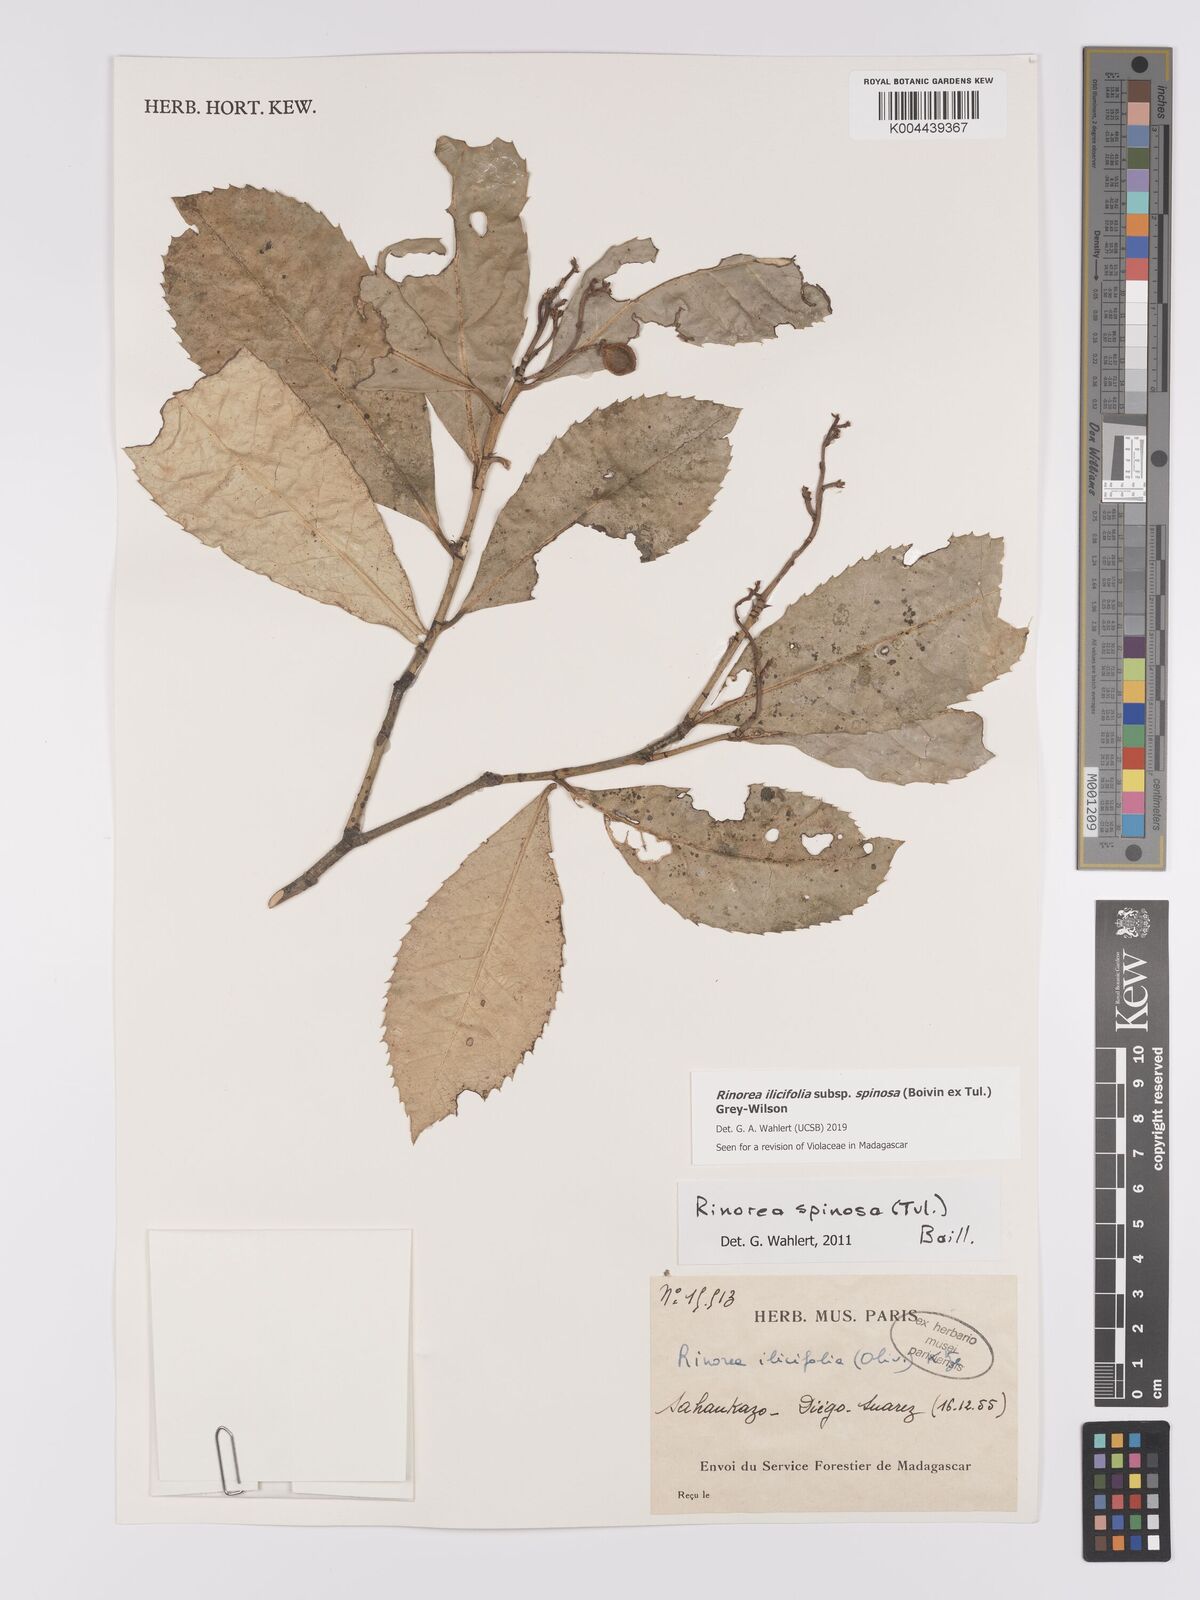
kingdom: Plantae
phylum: Tracheophyta
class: Magnoliopsida
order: Malpighiales
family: Violaceae
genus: Rinorea
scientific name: Rinorea spinosa
